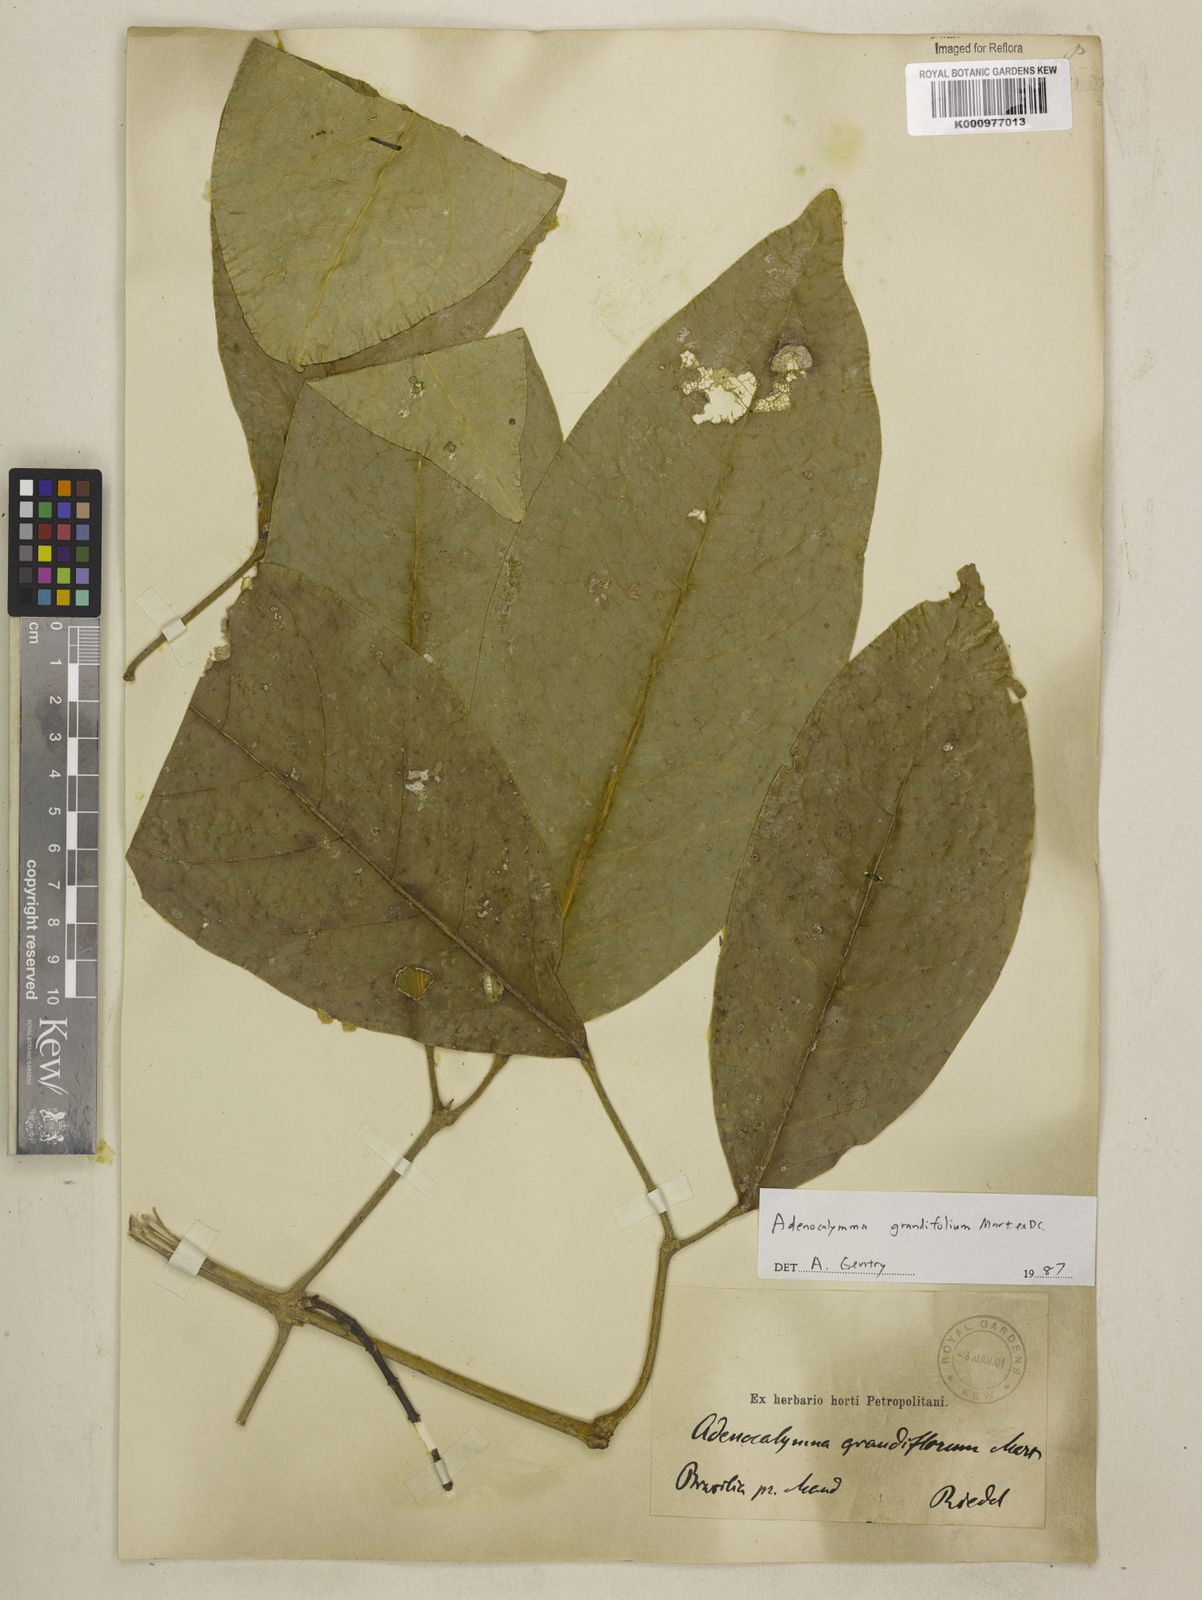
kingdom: Plantae
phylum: Tracheophyta
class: Magnoliopsida
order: Lamiales
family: Bignoniaceae
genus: Adenocalymma
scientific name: Adenocalymma ternatum
